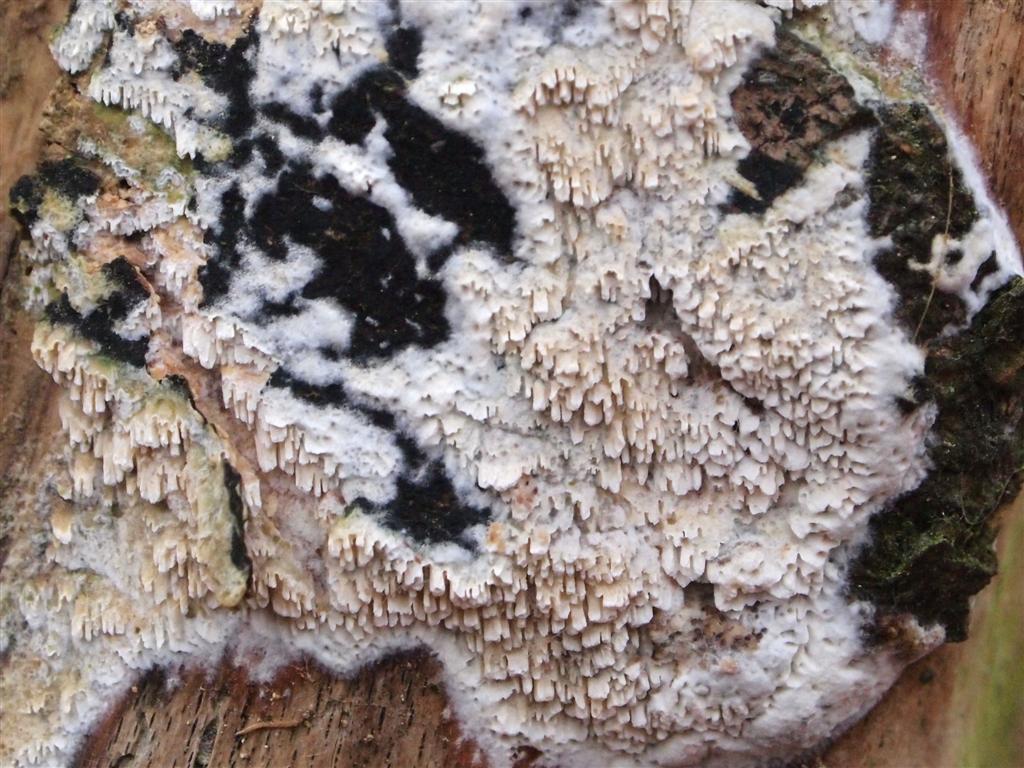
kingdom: Fungi
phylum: Basidiomycota
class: Agaricomycetes
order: Hymenochaetales
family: Schizoporaceae
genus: Schizopora
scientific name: Schizopora paradoxa
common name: hvid tandsvamp
